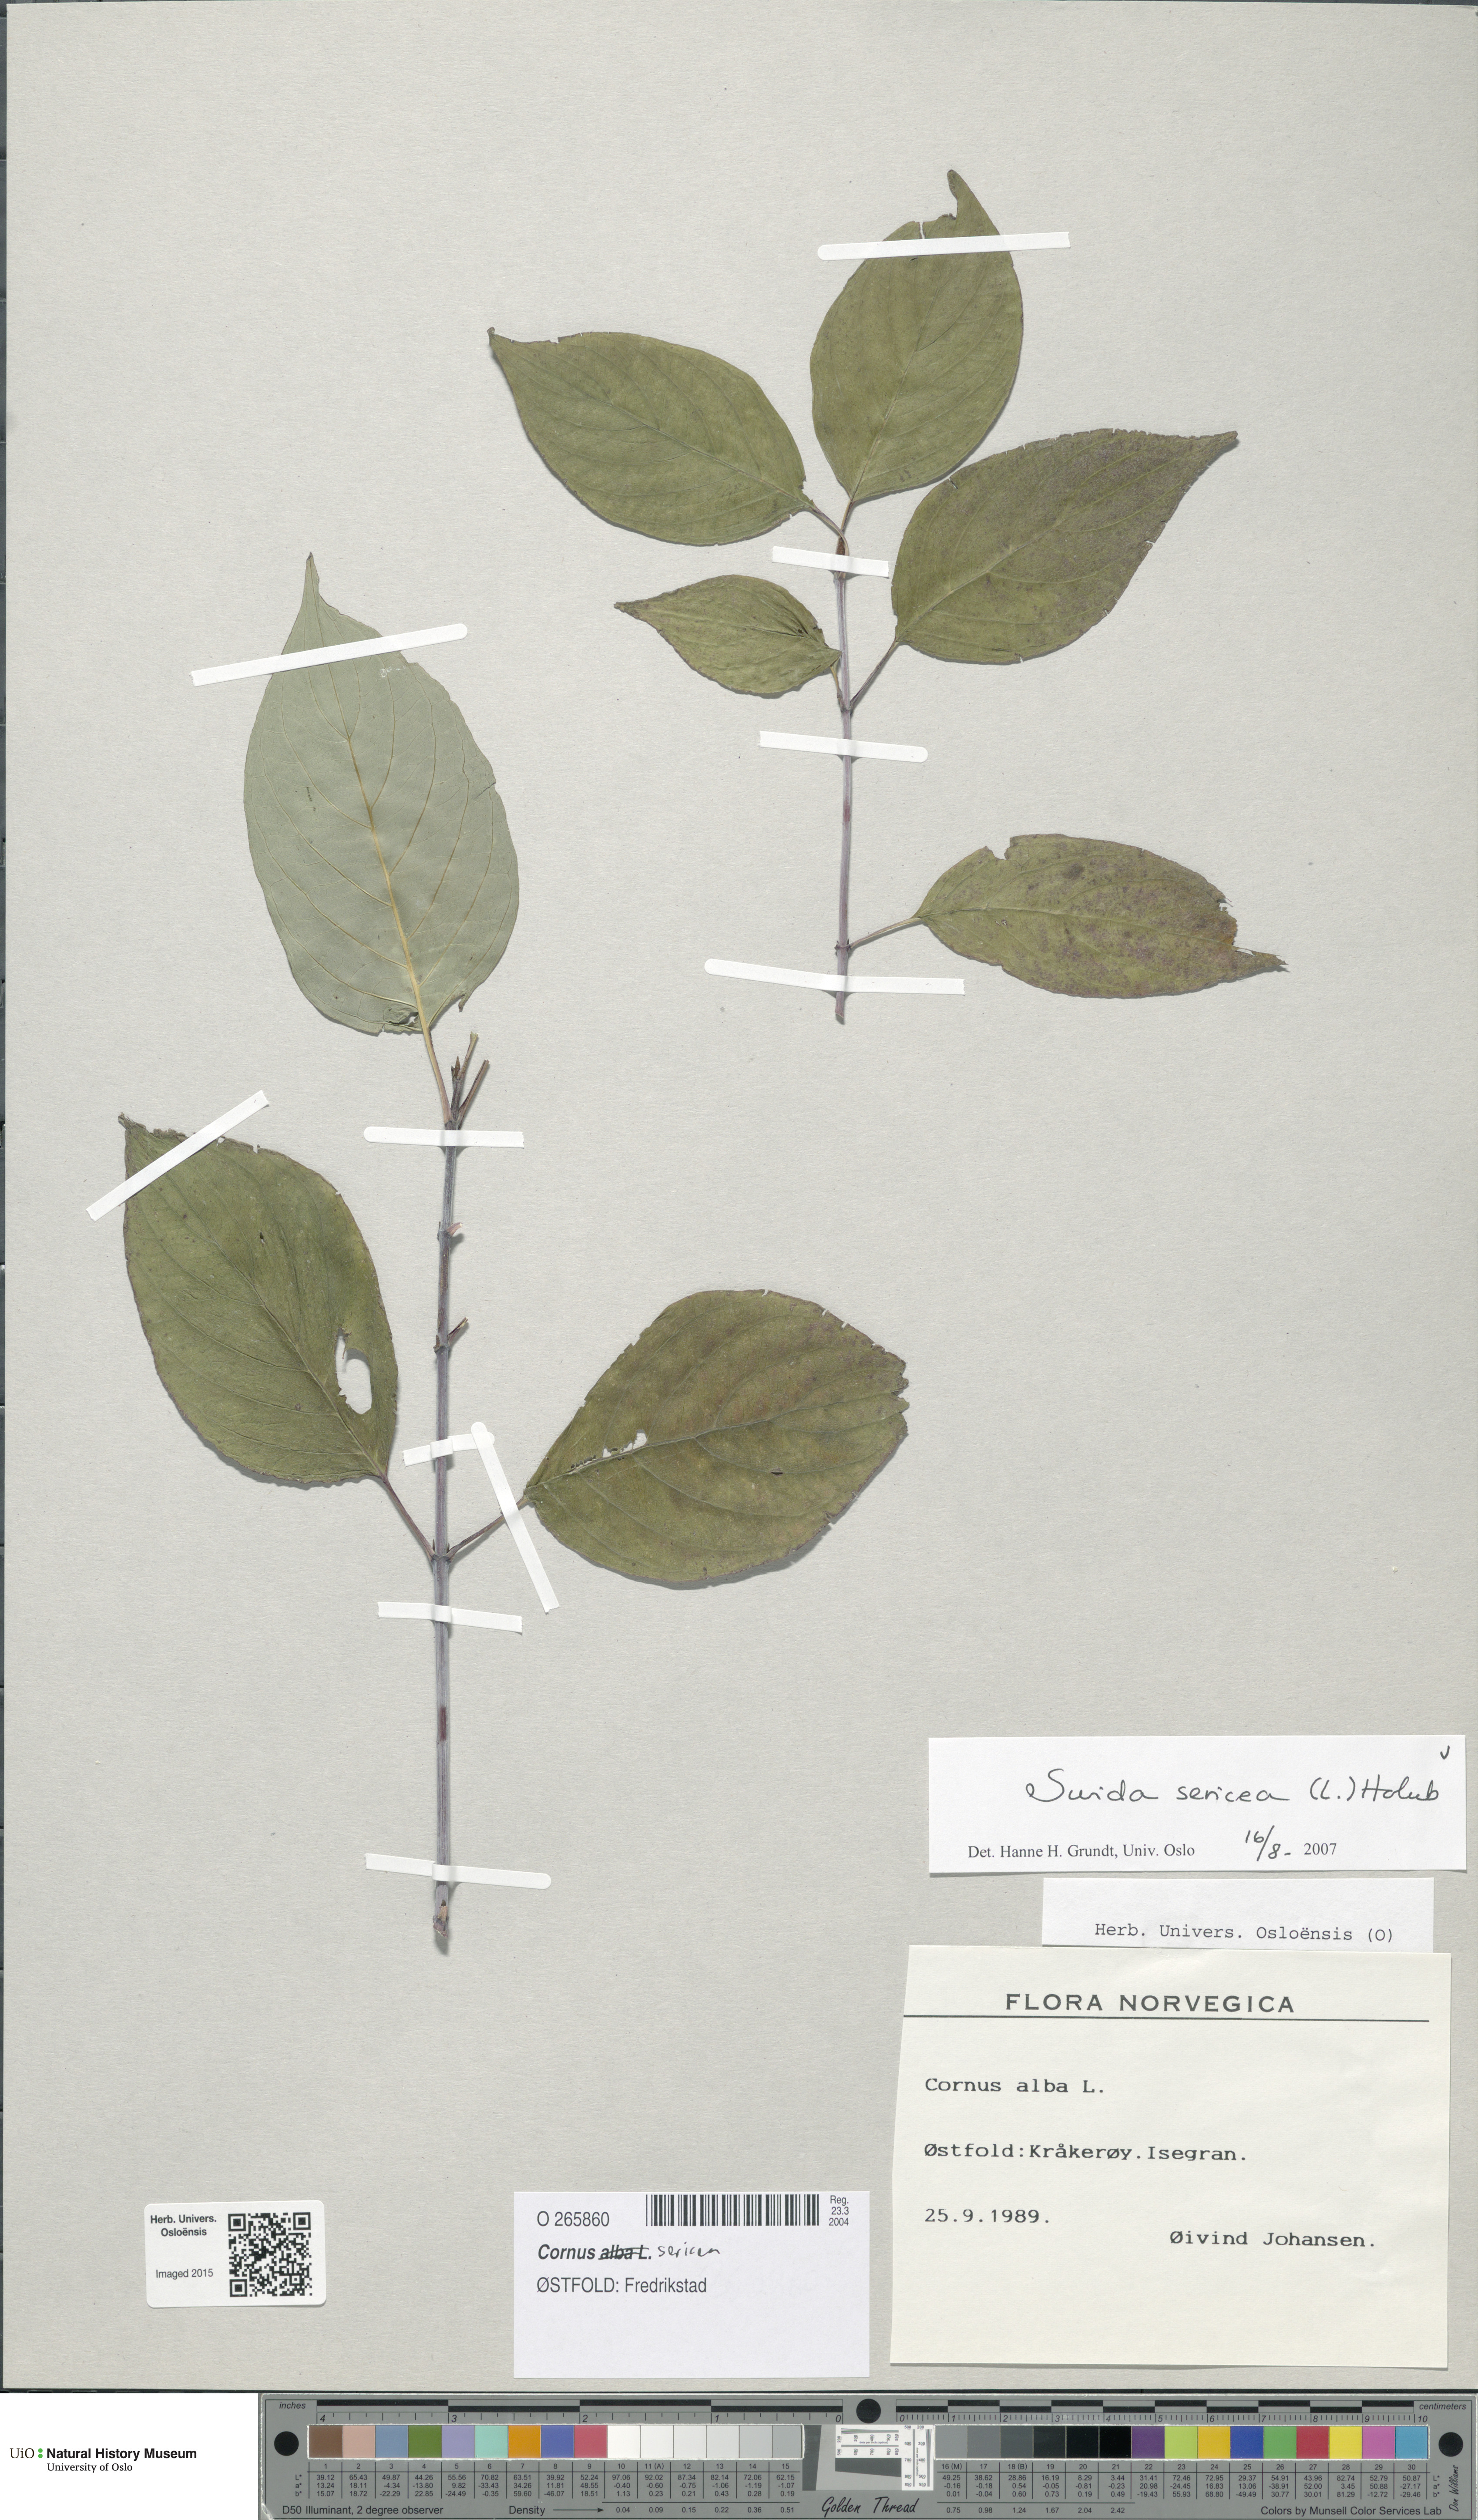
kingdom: Plantae
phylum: Tracheophyta
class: Magnoliopsida
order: Cornales
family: Cornaceae
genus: Cornus
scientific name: Cornus sericea
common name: Red-osier dogwood
